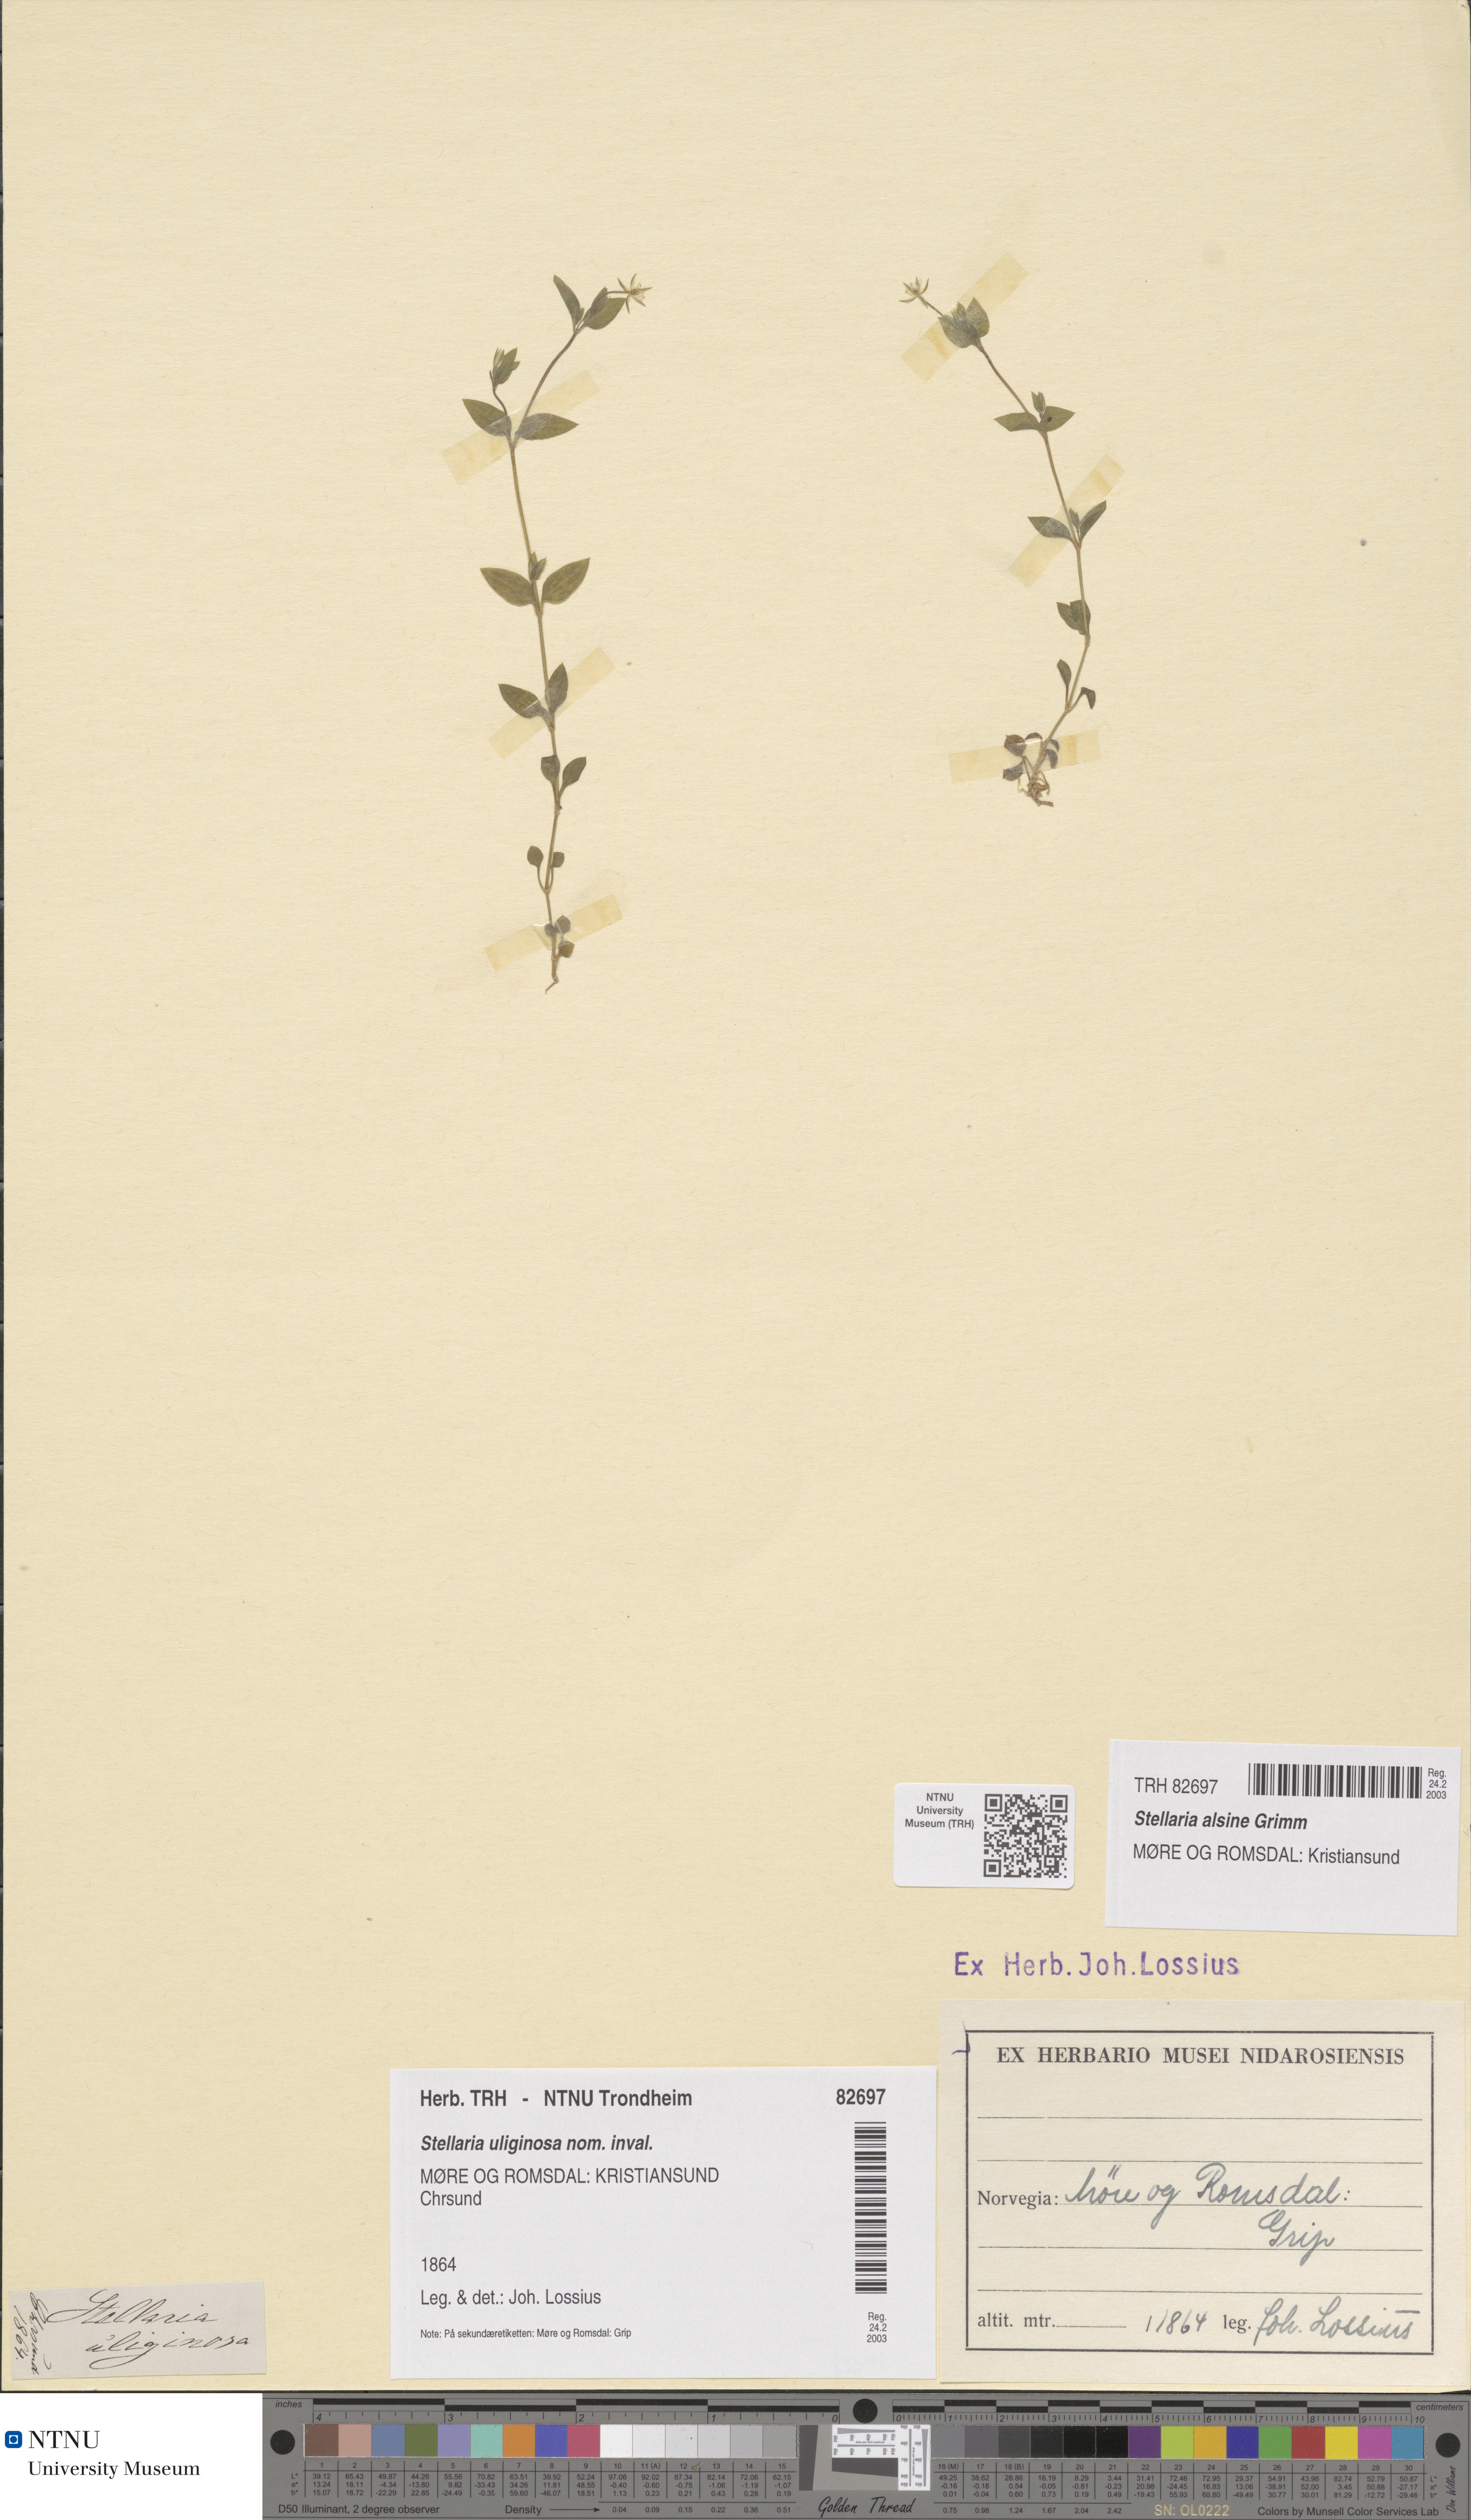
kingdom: Plantae
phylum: Tracheophyta
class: Magnoliopsida
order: Caryophyllales
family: Caryophyllaceae
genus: Stellaria
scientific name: Stellaria alsine
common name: Bog stitchwort
